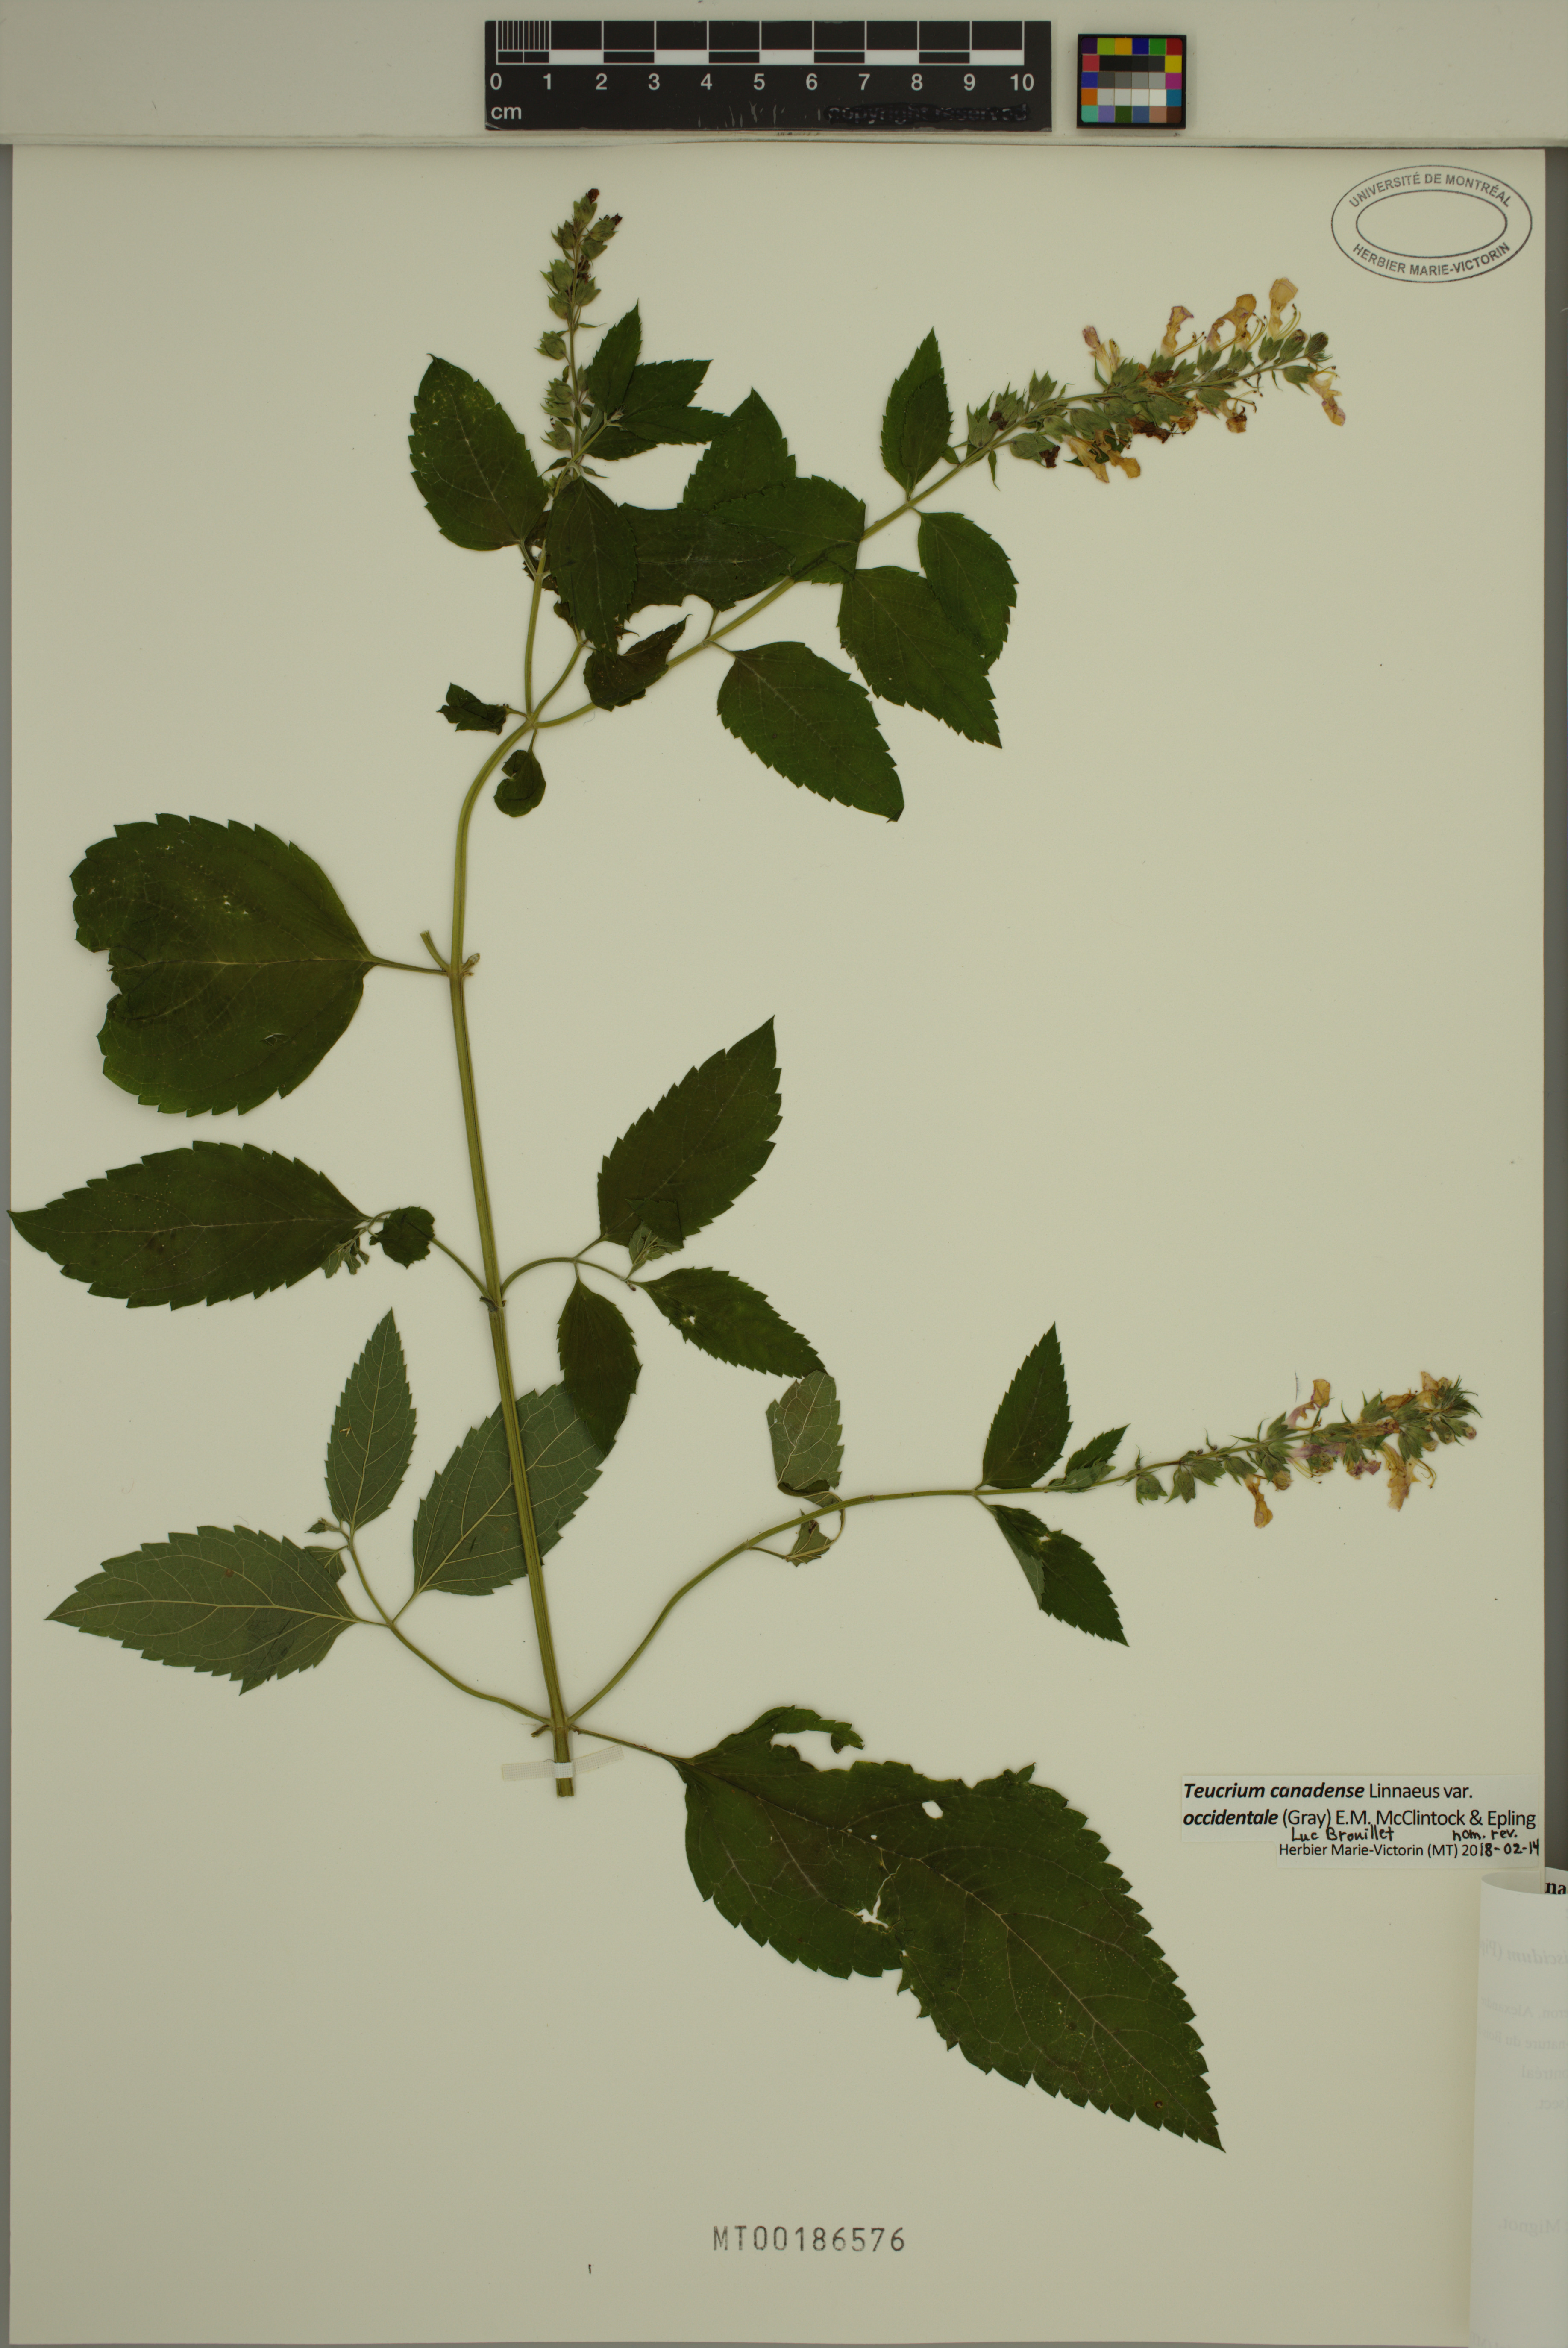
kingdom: Plantae
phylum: Tracheophyta
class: Magnoliopsida
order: Lamiales
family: Lamiaceae
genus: Teucrium
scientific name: Teucrium canadense
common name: American germander
